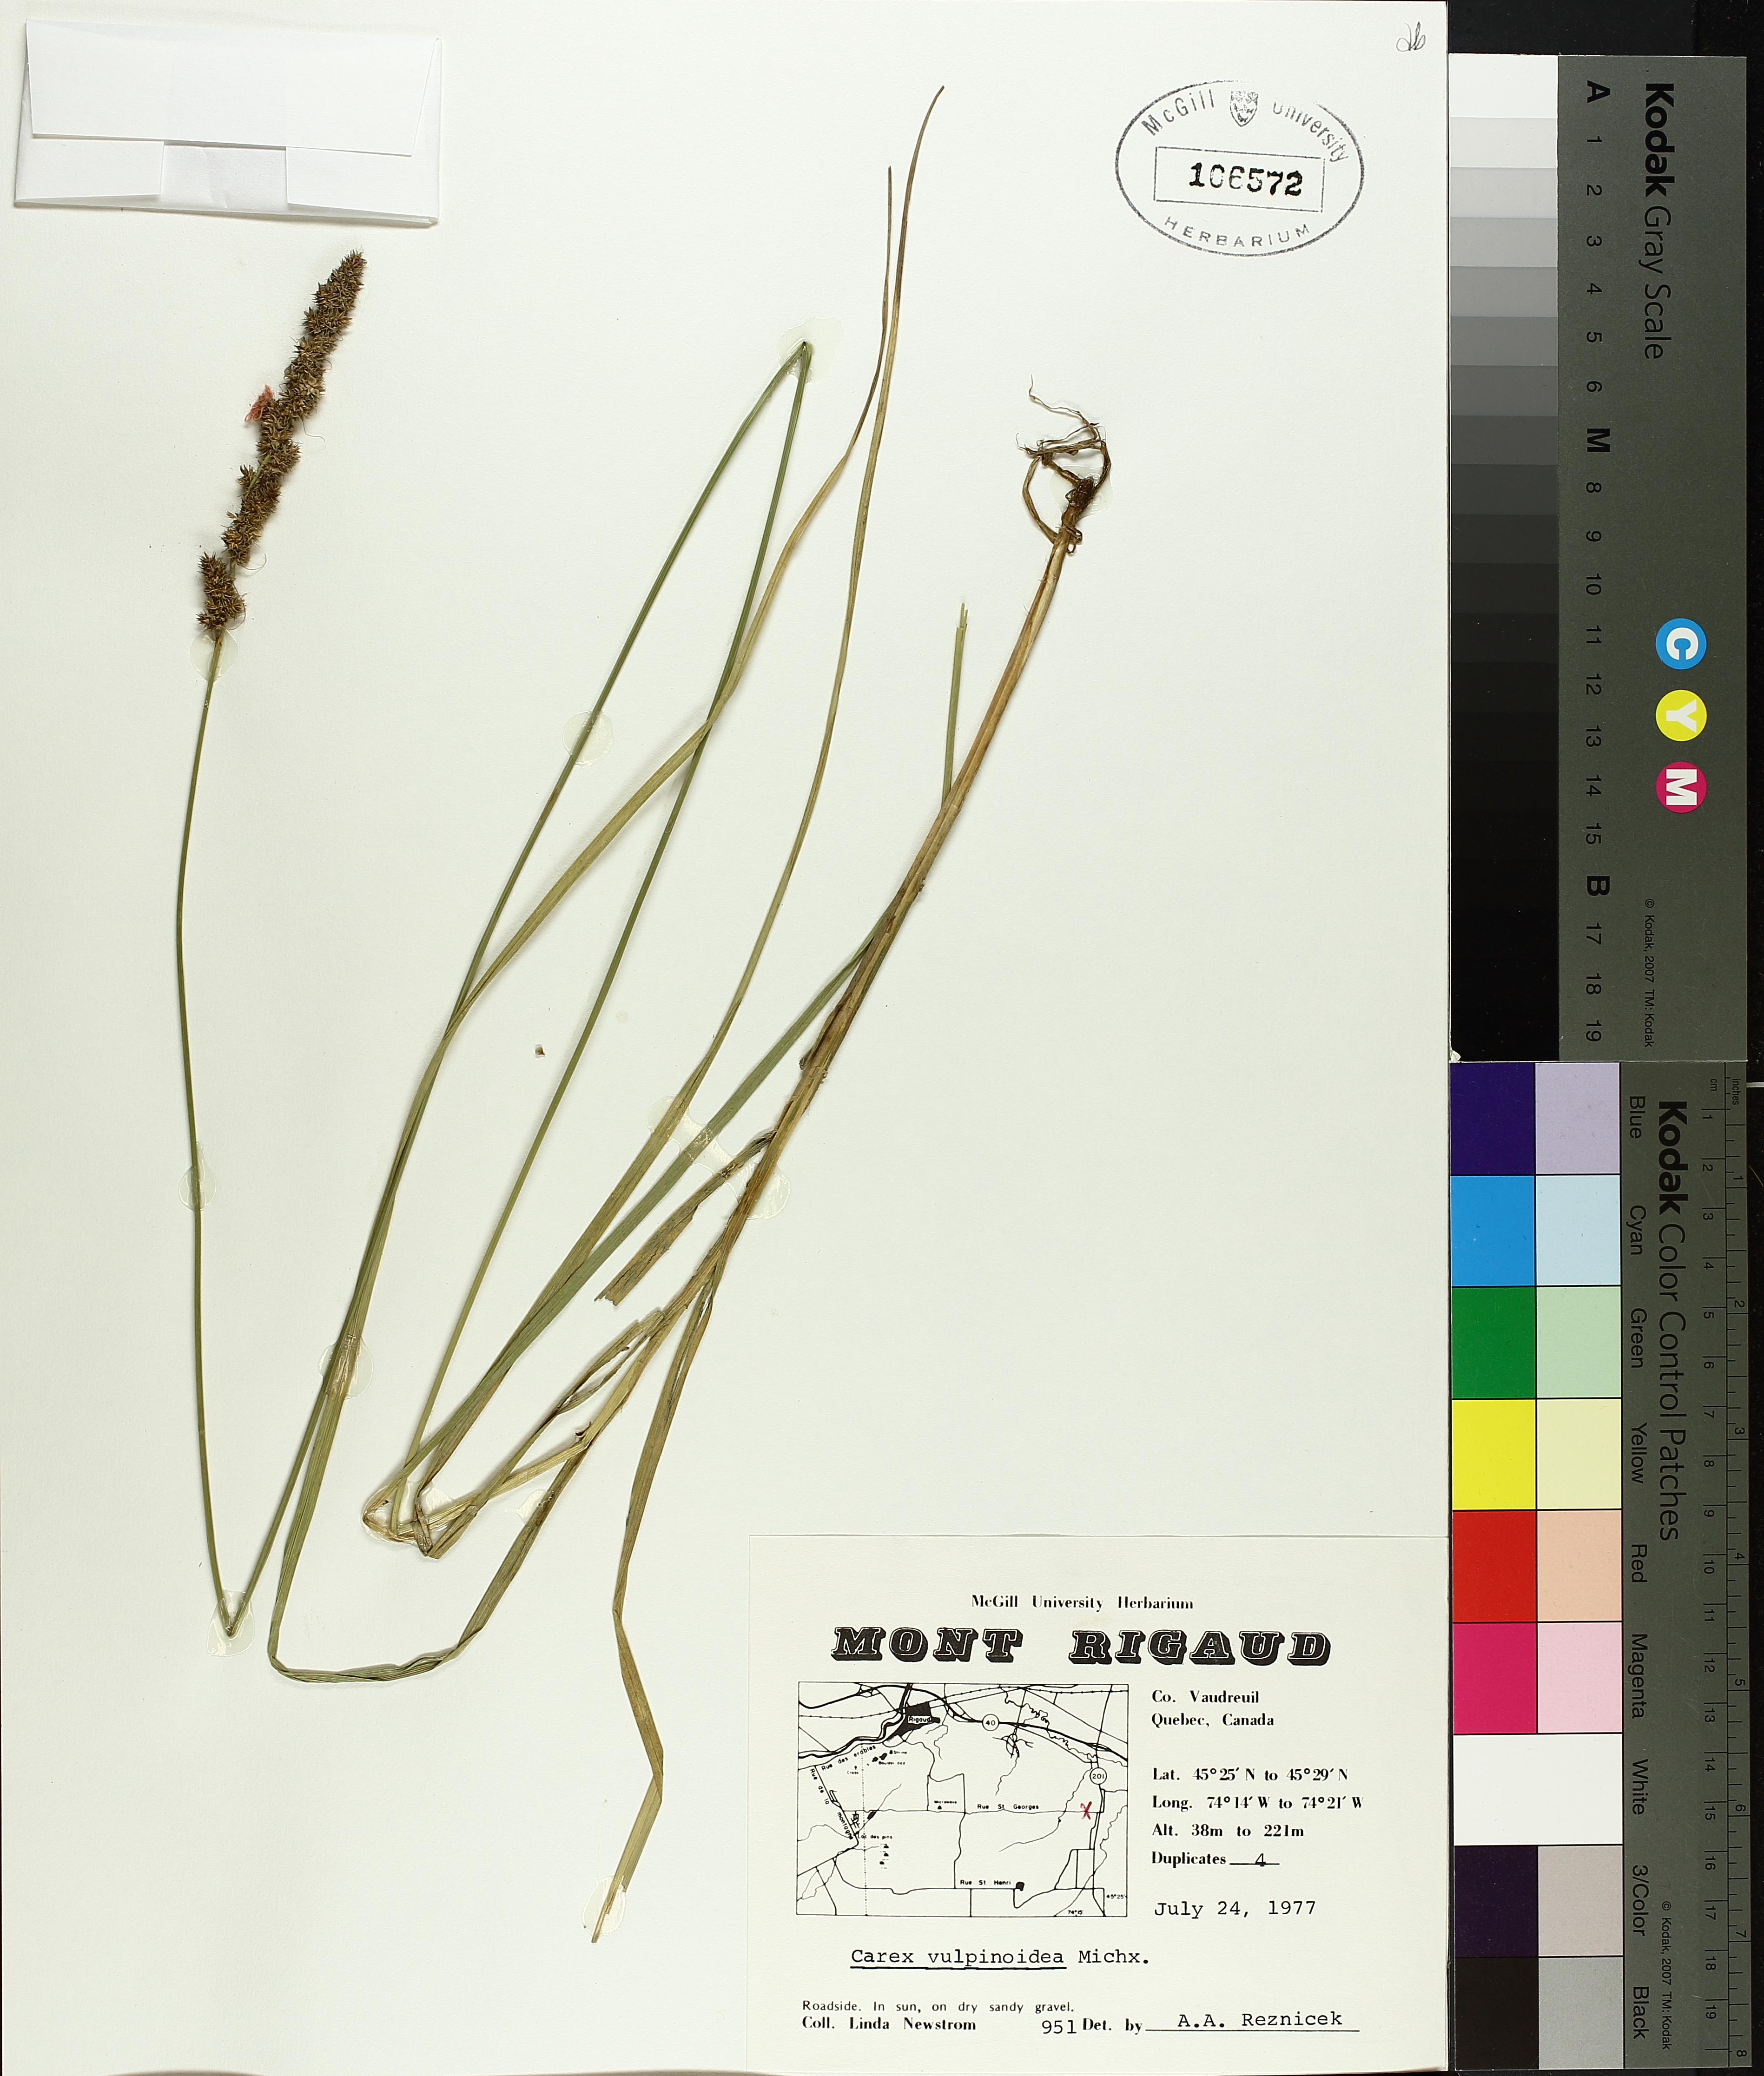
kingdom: Plantae
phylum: Tracheophyta
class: Liliopsida
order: Poales
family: Cyperaceae
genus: Carex
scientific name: Carex vulpinoidea
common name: American fox-sedge
